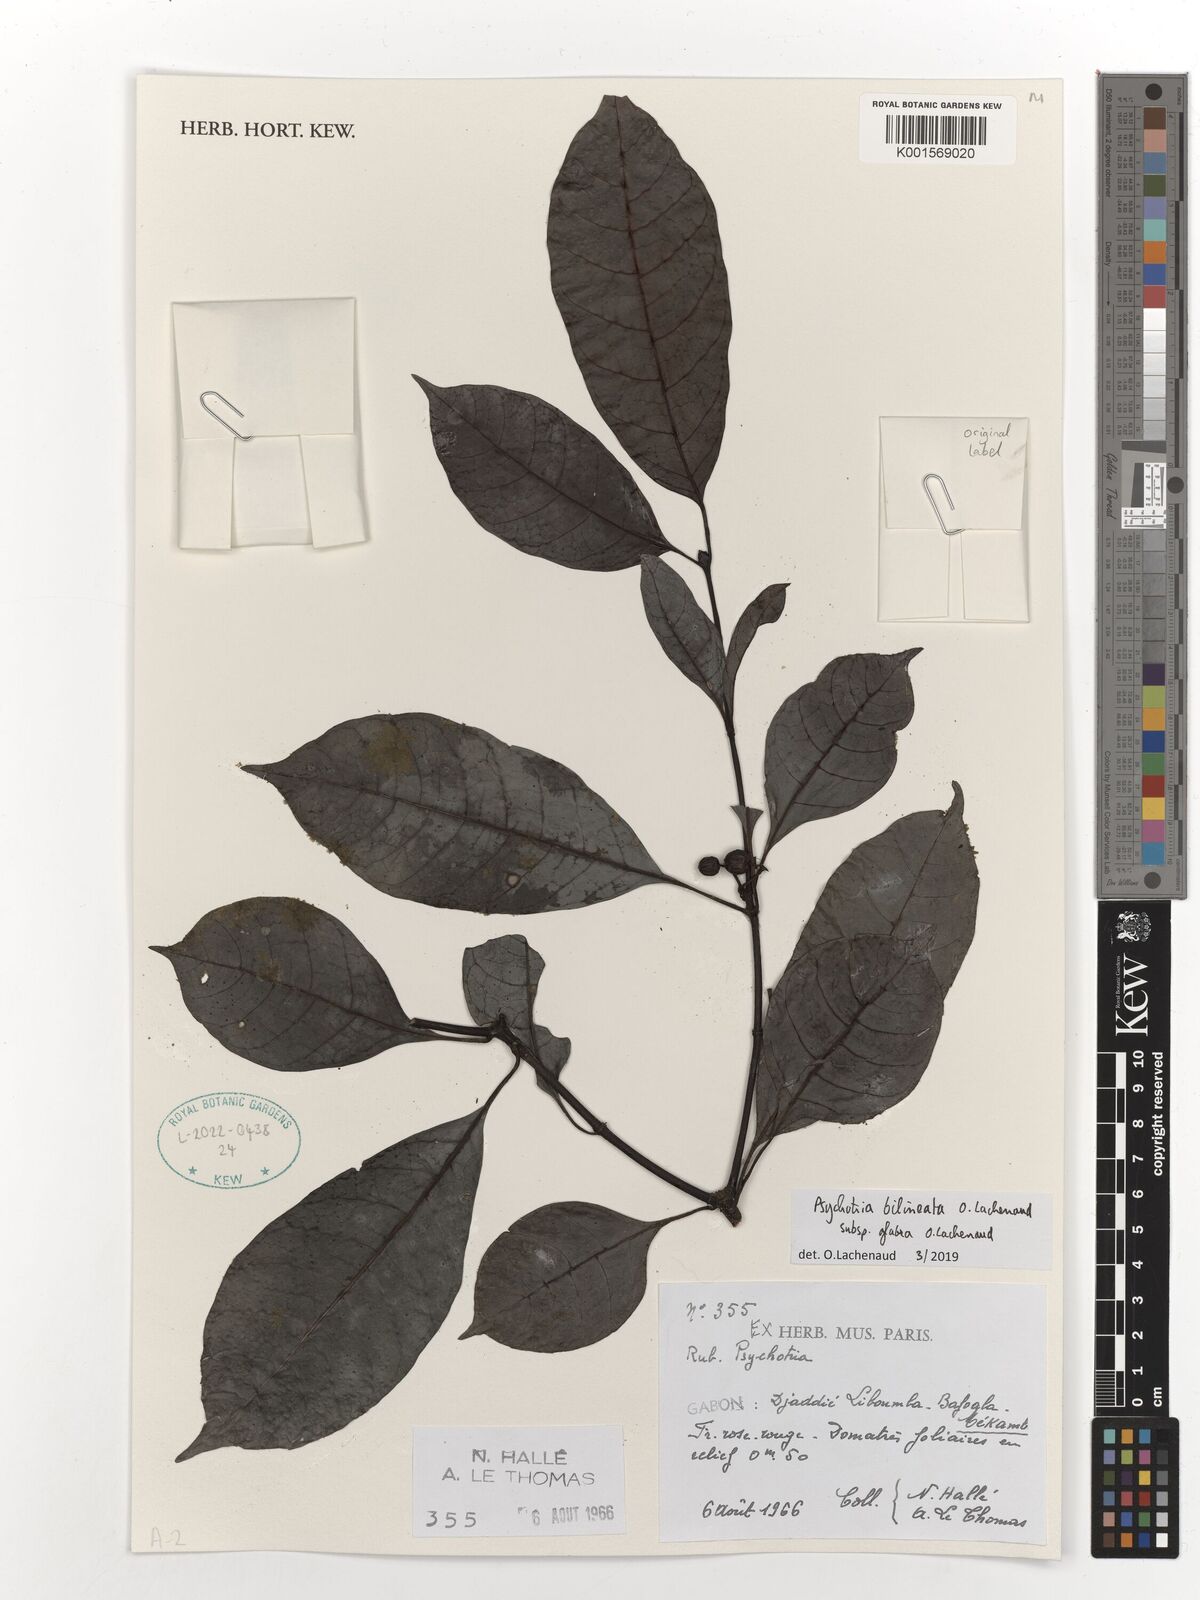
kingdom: Plantae
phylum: Tracheophyta
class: Magnoliopsida
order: Gentianales
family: Rubiaceae
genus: Psychotria
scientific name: Psychotria bilineata
